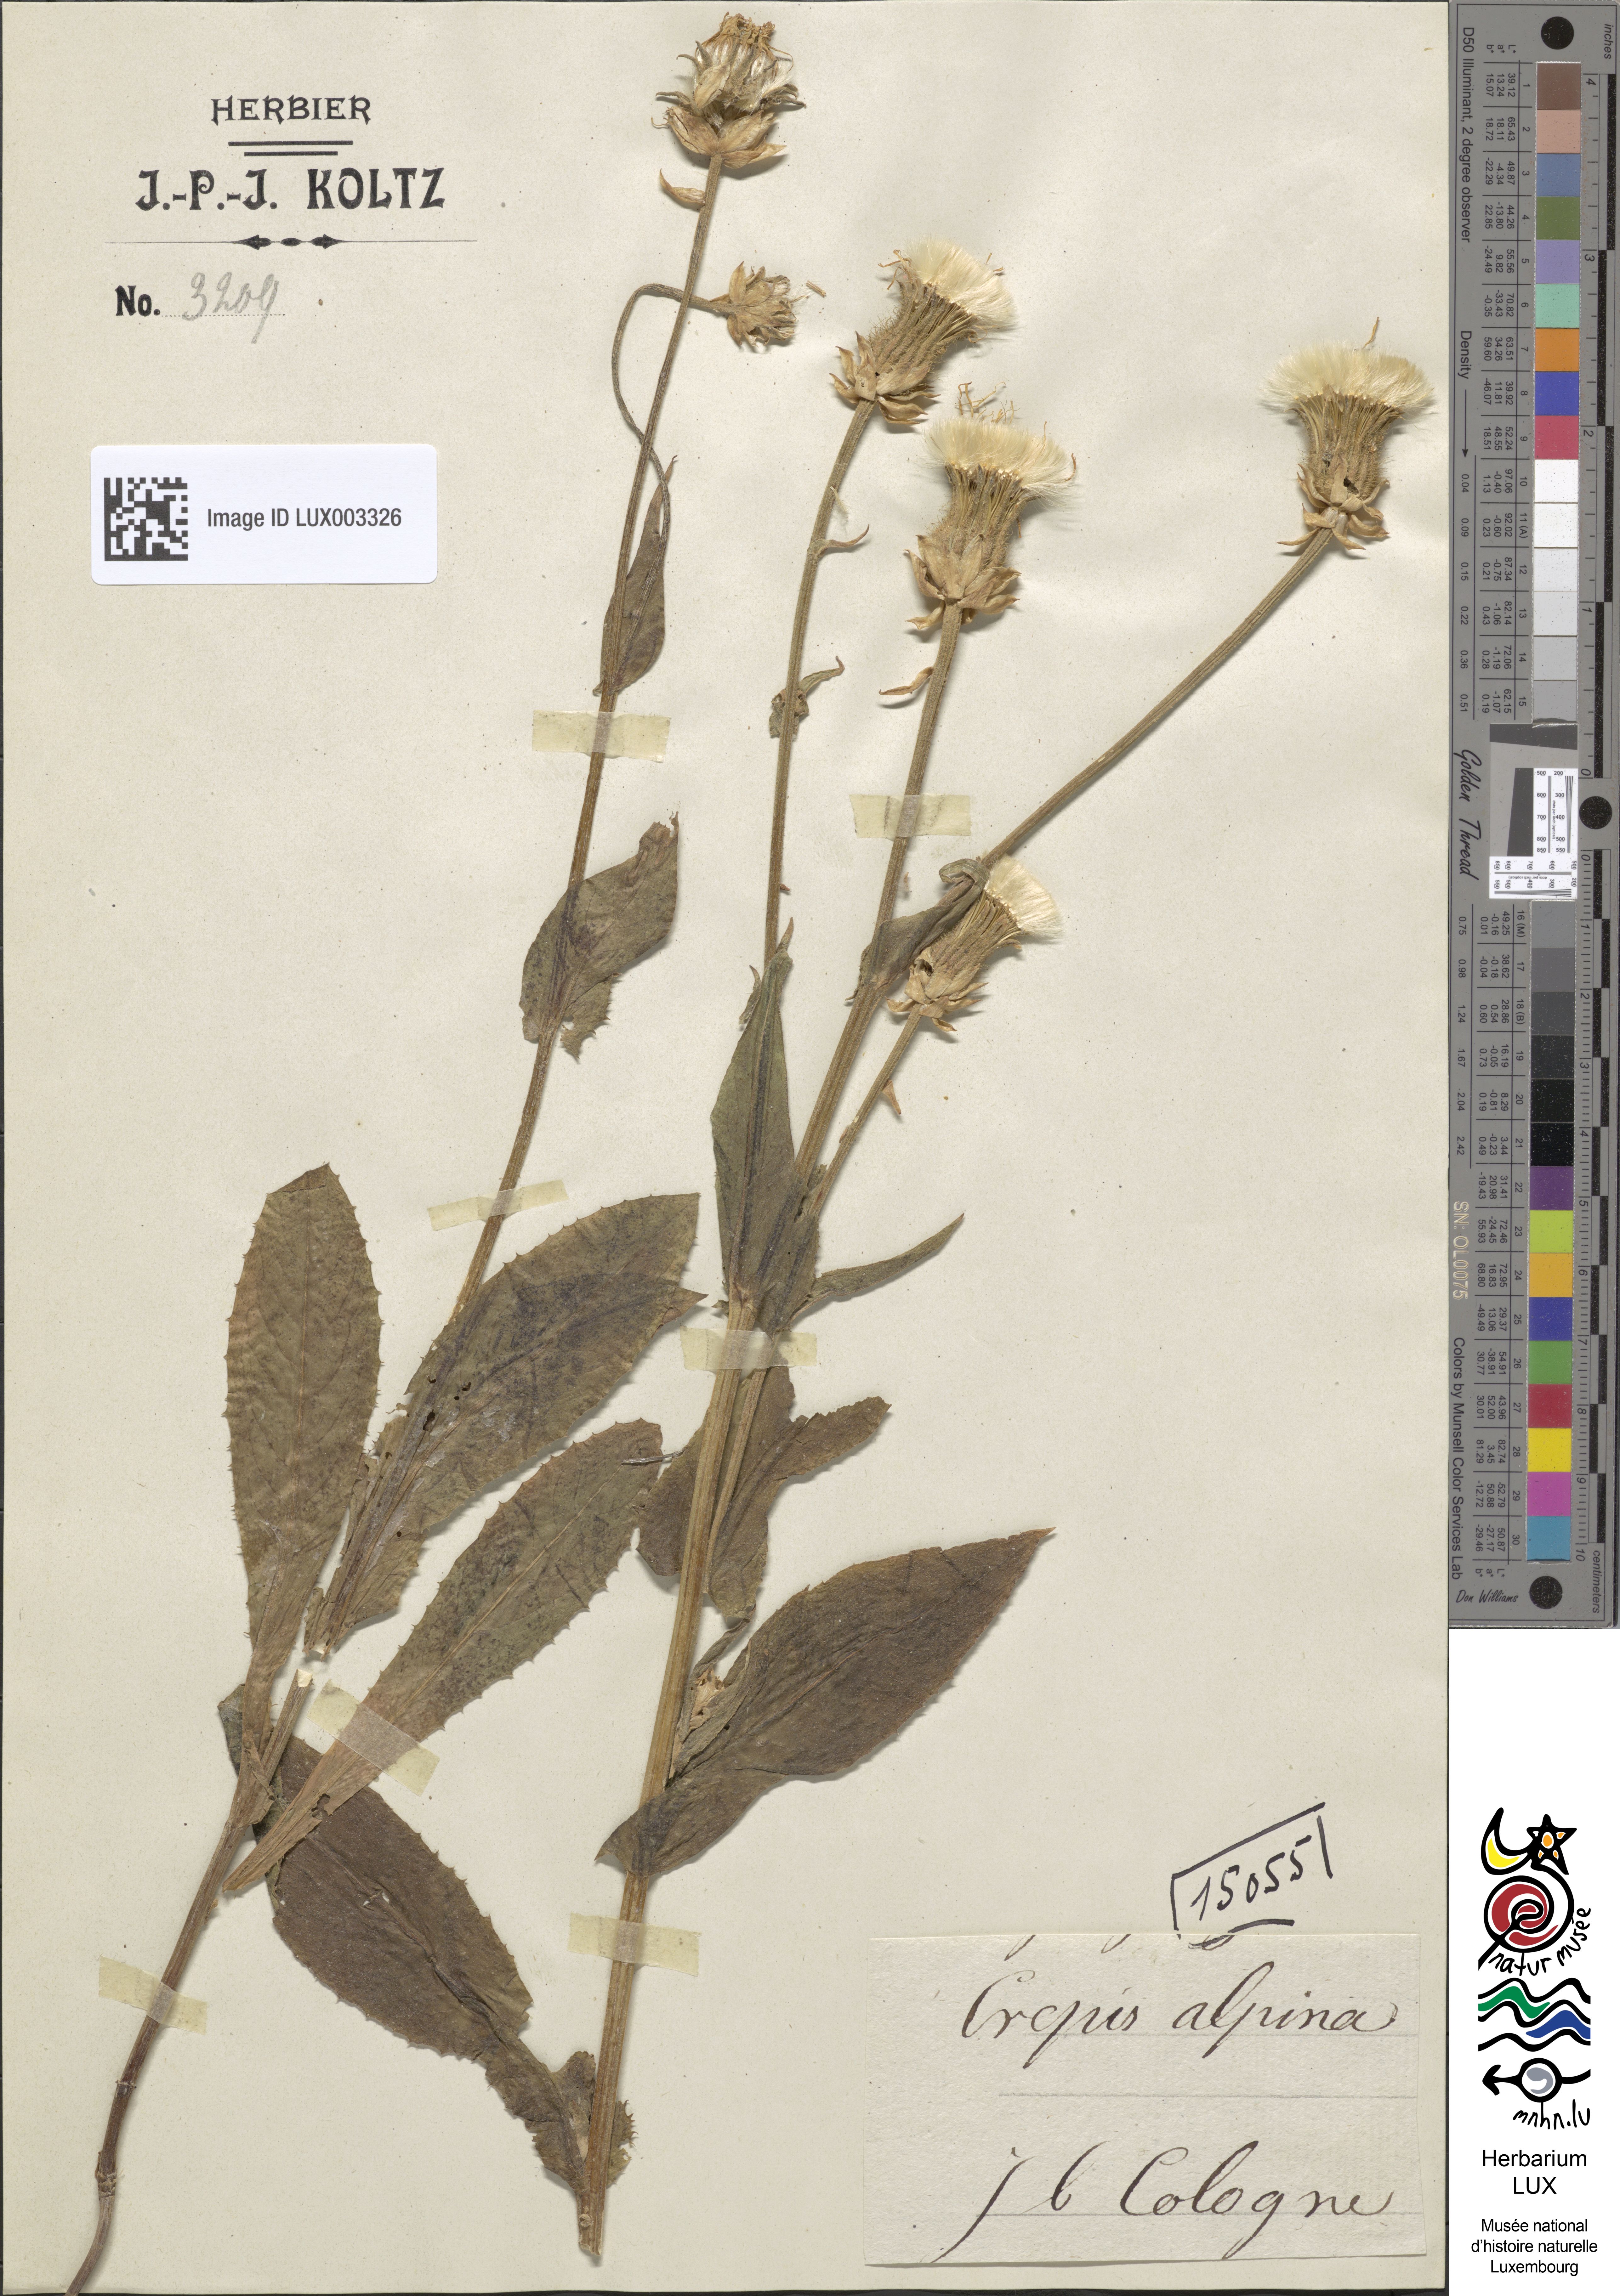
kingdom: Plantae
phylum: Tracheophyta
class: Magnoliopsida
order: Asterales
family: Asteraceae
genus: Crepis
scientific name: Crepis alpina
